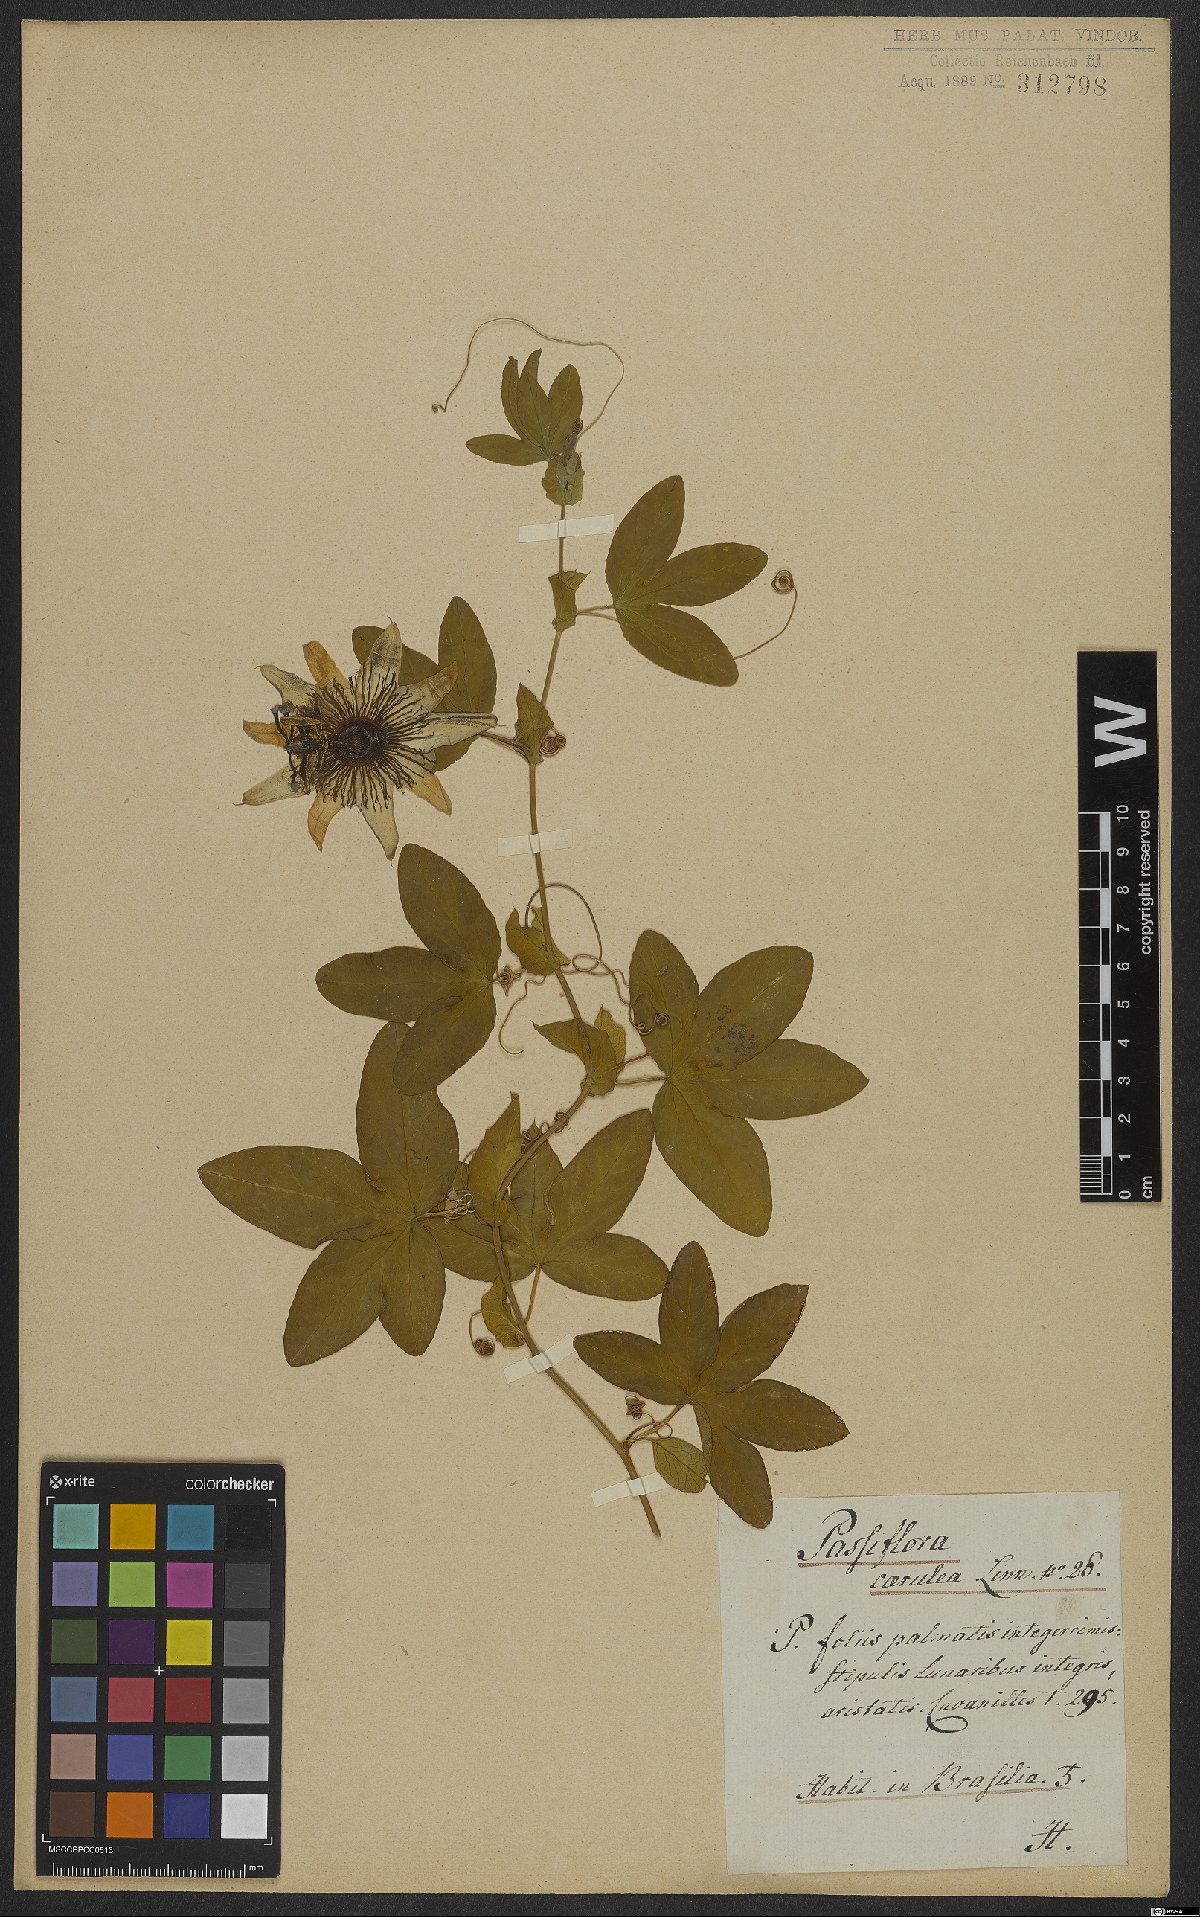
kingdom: Plantae
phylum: Tracheophyta
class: Magnoliopsida
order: Malpighiales
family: Passifloraceae
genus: Passiflora
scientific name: Passiflora caerulea
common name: Blue passionflower
